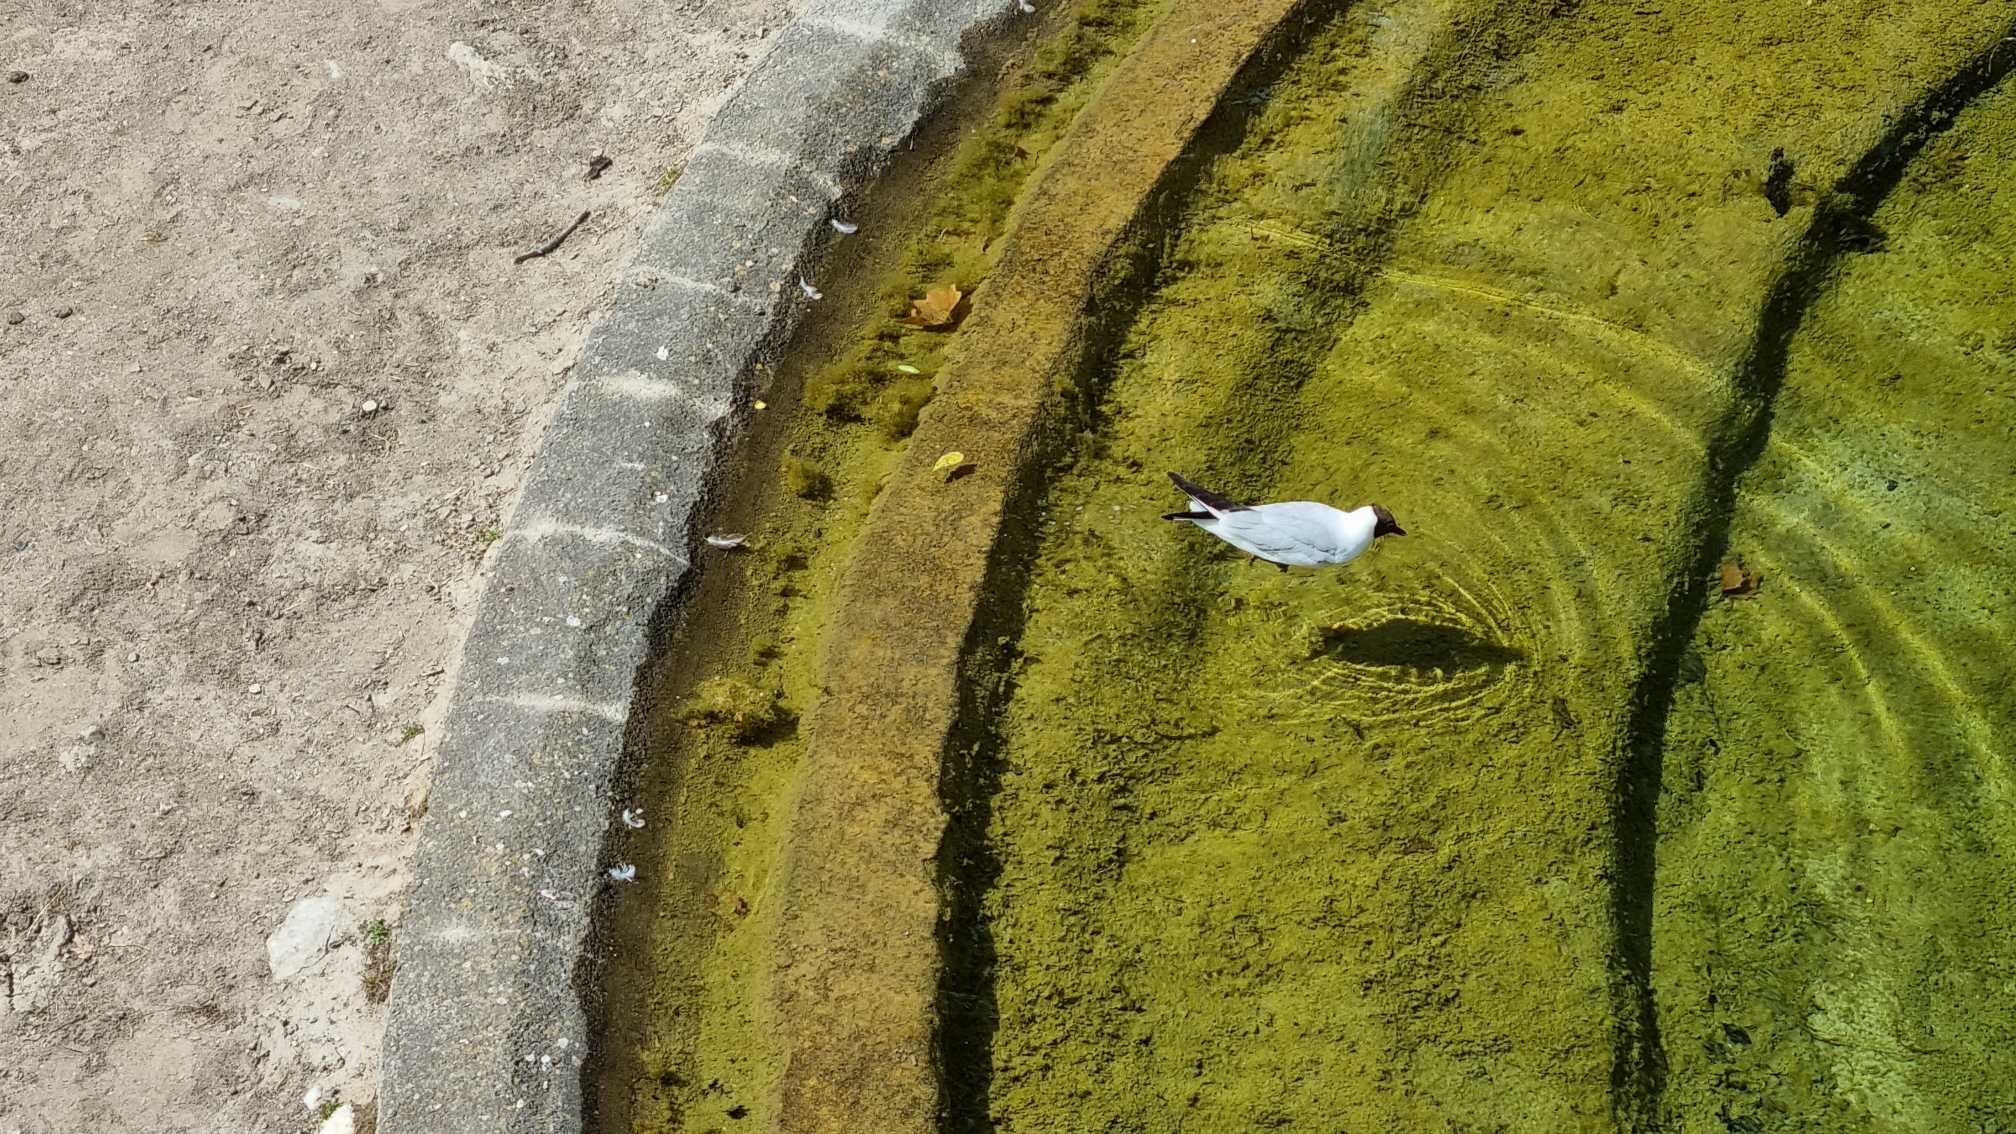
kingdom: Animalia
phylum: Chordata
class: Aves
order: Charadriiformes
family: Laridae
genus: Chroicocephalus
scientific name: Chroicocephalus ridibundus
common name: Hættemåge
